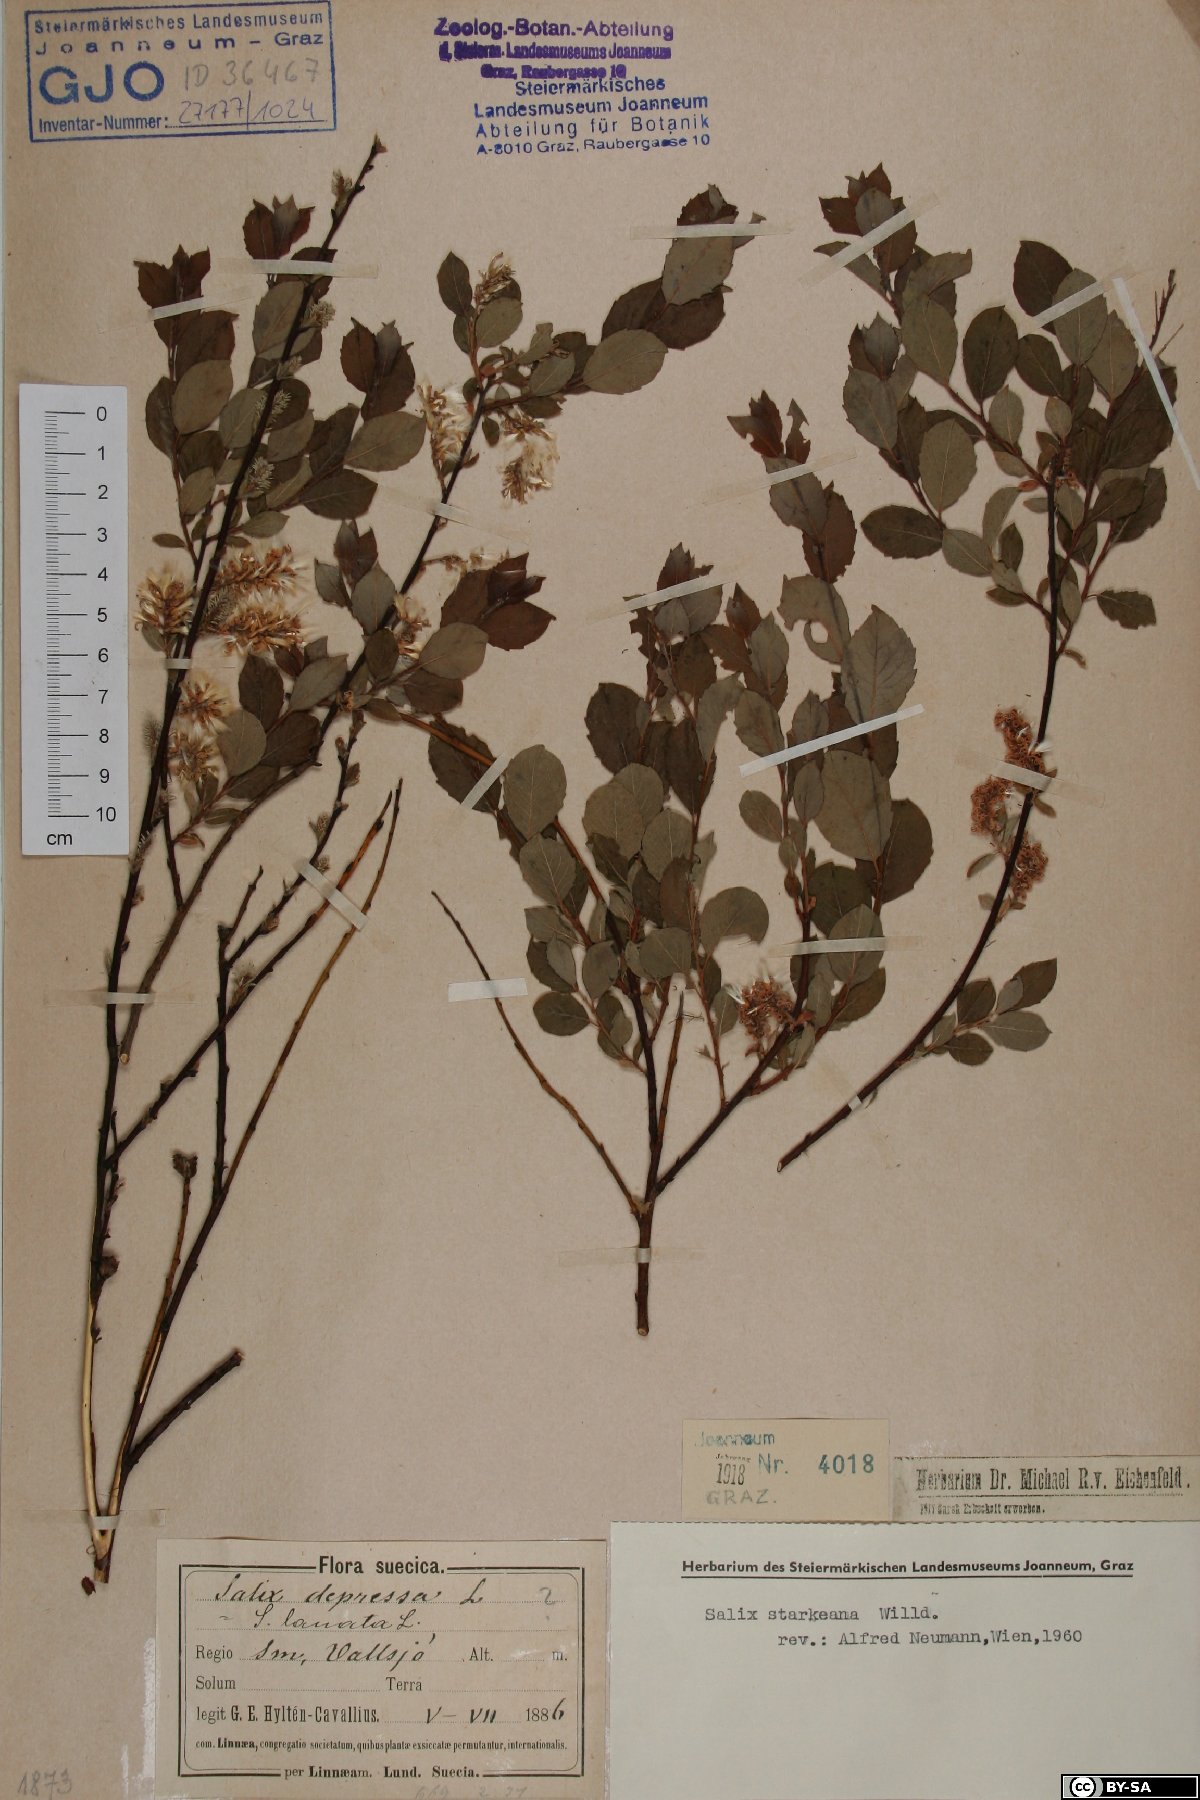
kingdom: Plantae
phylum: Tracheophyta
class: Magnoliopsida
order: Malpighiales
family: Salicaceae
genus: Salix
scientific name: Salix starkeana
